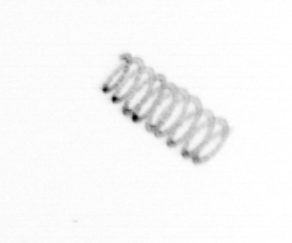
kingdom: Chromista
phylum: Ochrophyta
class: Bacillariophyceae
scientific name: Bacillariophyceae
